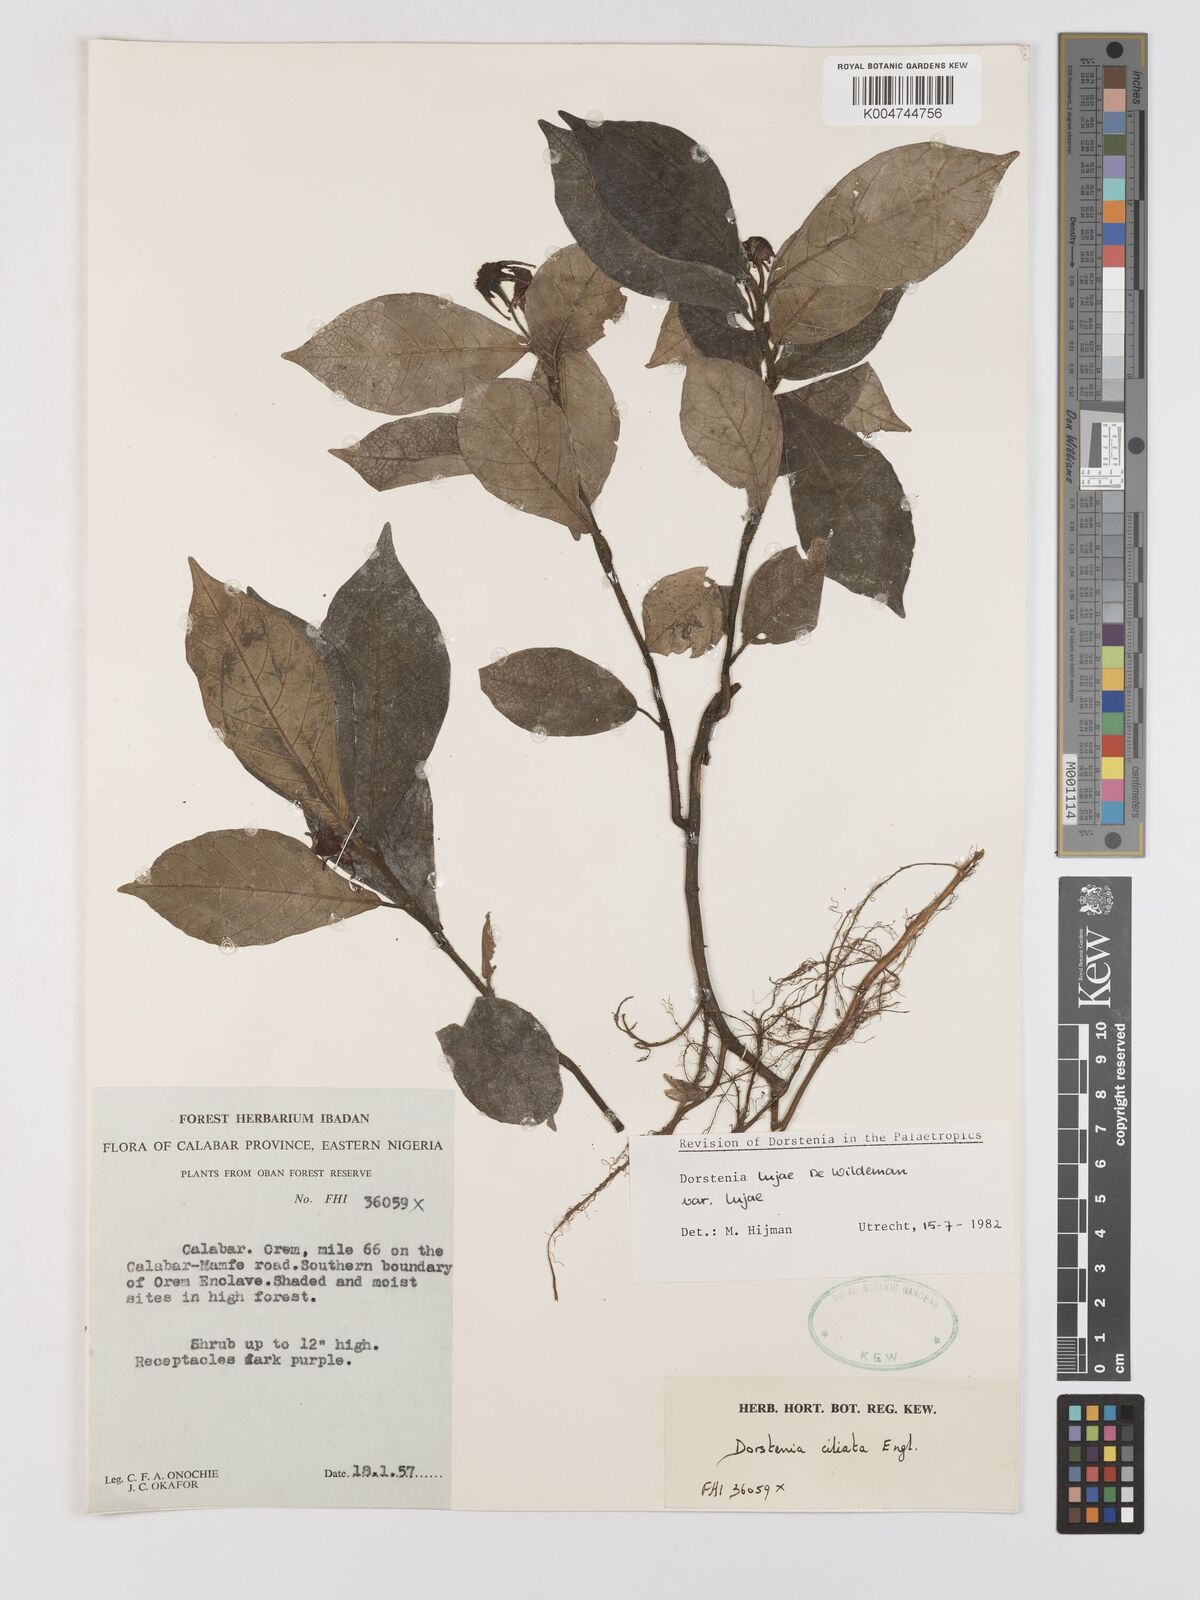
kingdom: Plantae
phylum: Tracheophyta
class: Magnoliopsida
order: Rosales
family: Moraceae
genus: Dorstenia
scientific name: Dorstenia lujae
